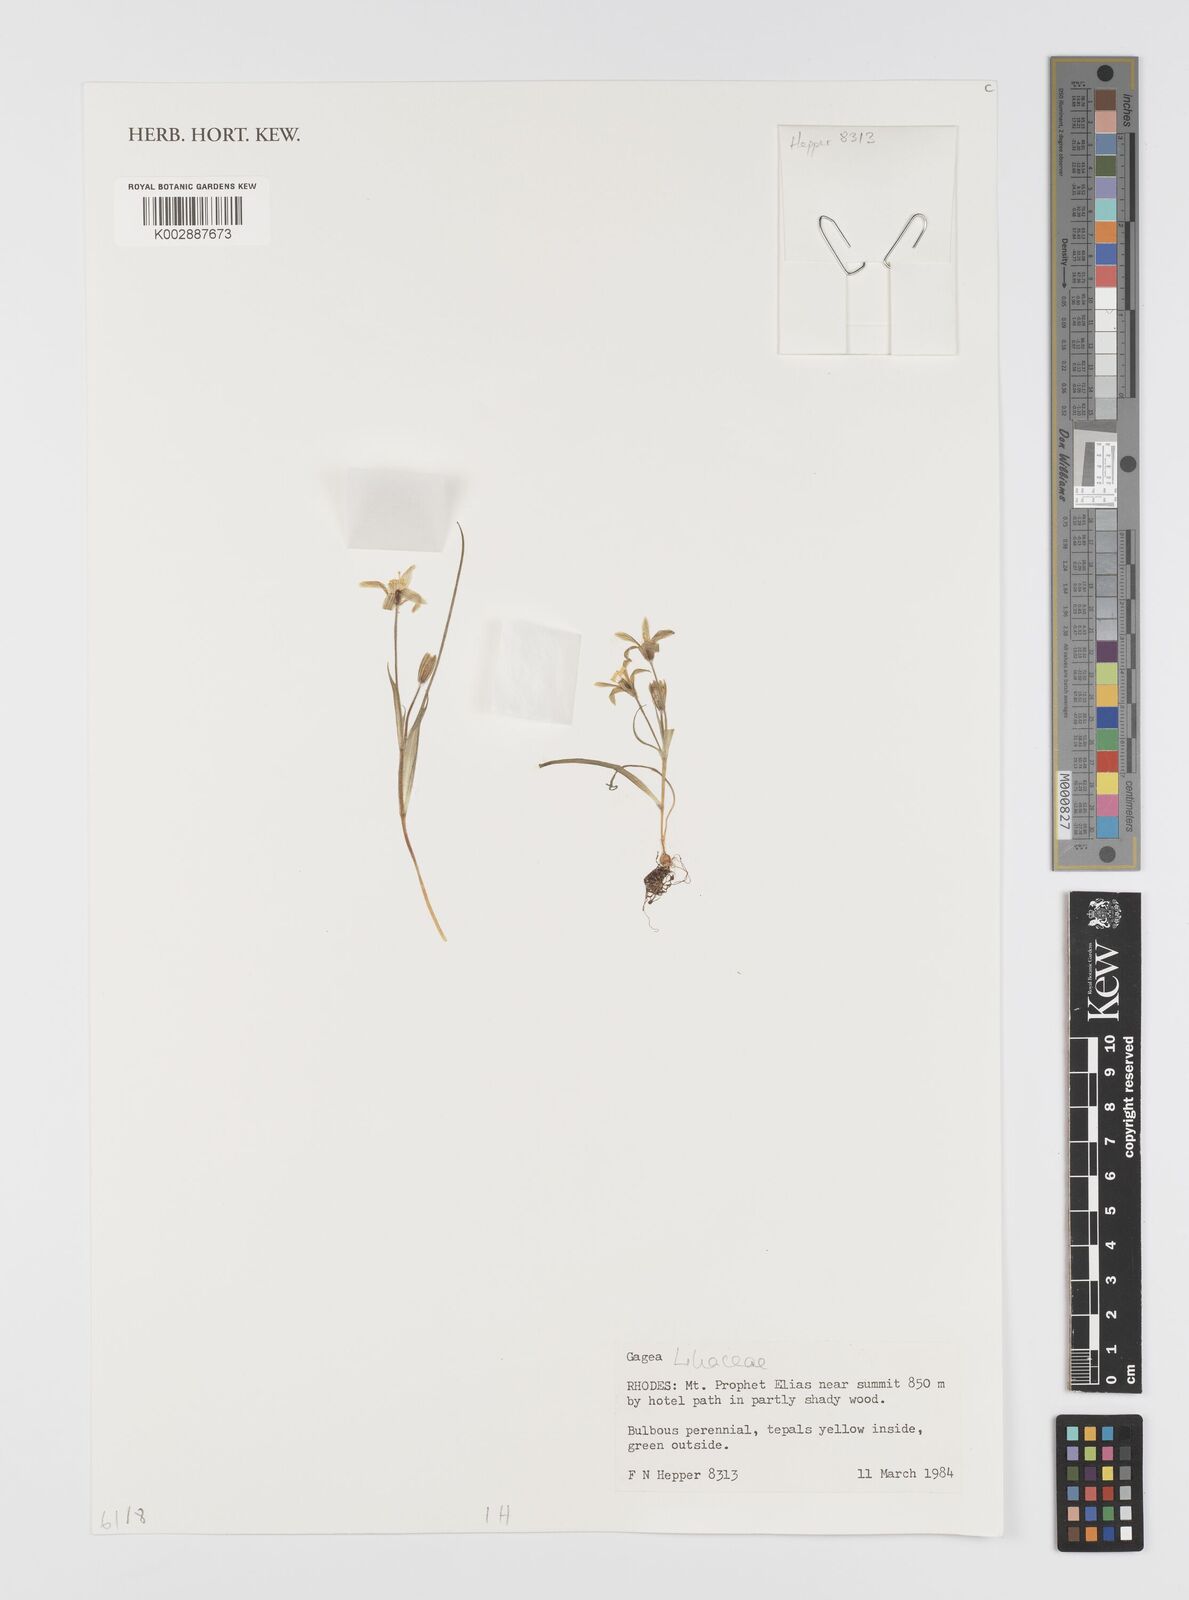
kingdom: Plantae
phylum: Tracheophyta
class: Liliopsida
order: Liliales
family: Liliaceae
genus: Gagea
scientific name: Gagea
